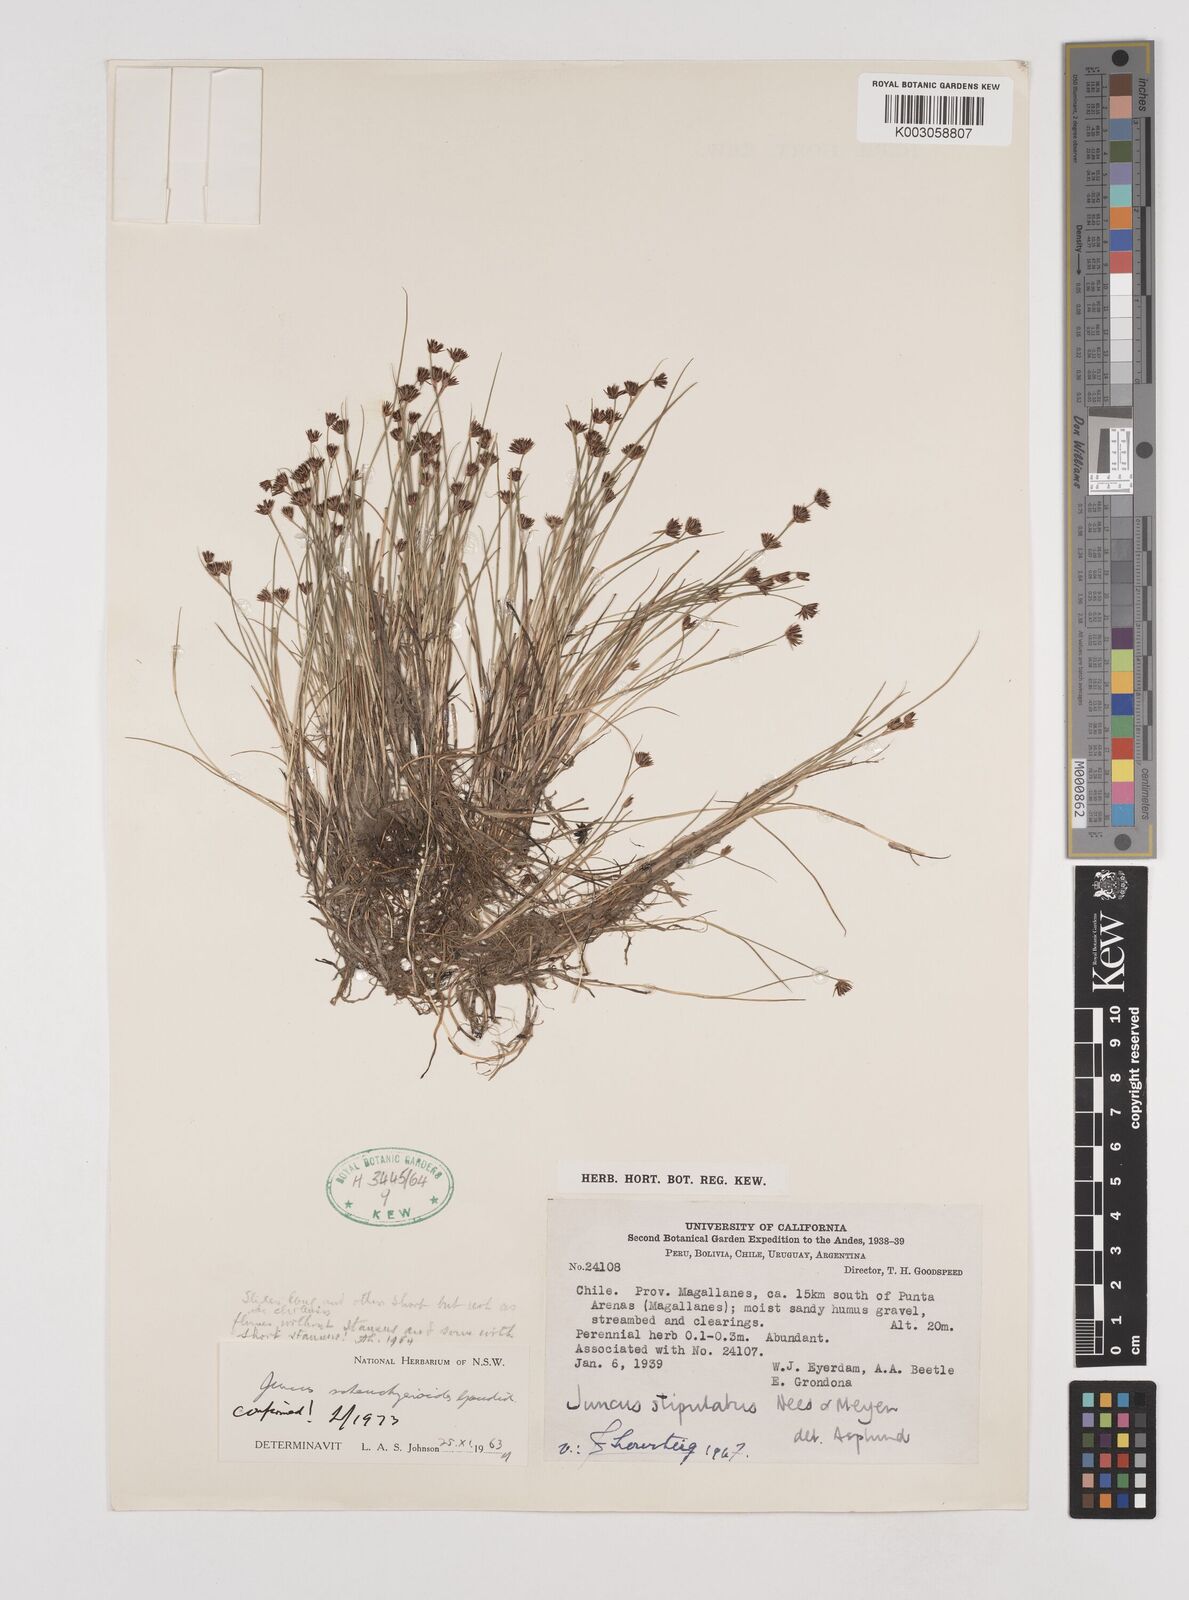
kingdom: Plantae
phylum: Tracheophyta
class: Liliopsida
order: Poales
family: Juncaceae
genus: Juncus
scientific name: Juncus scheuchzerioides
